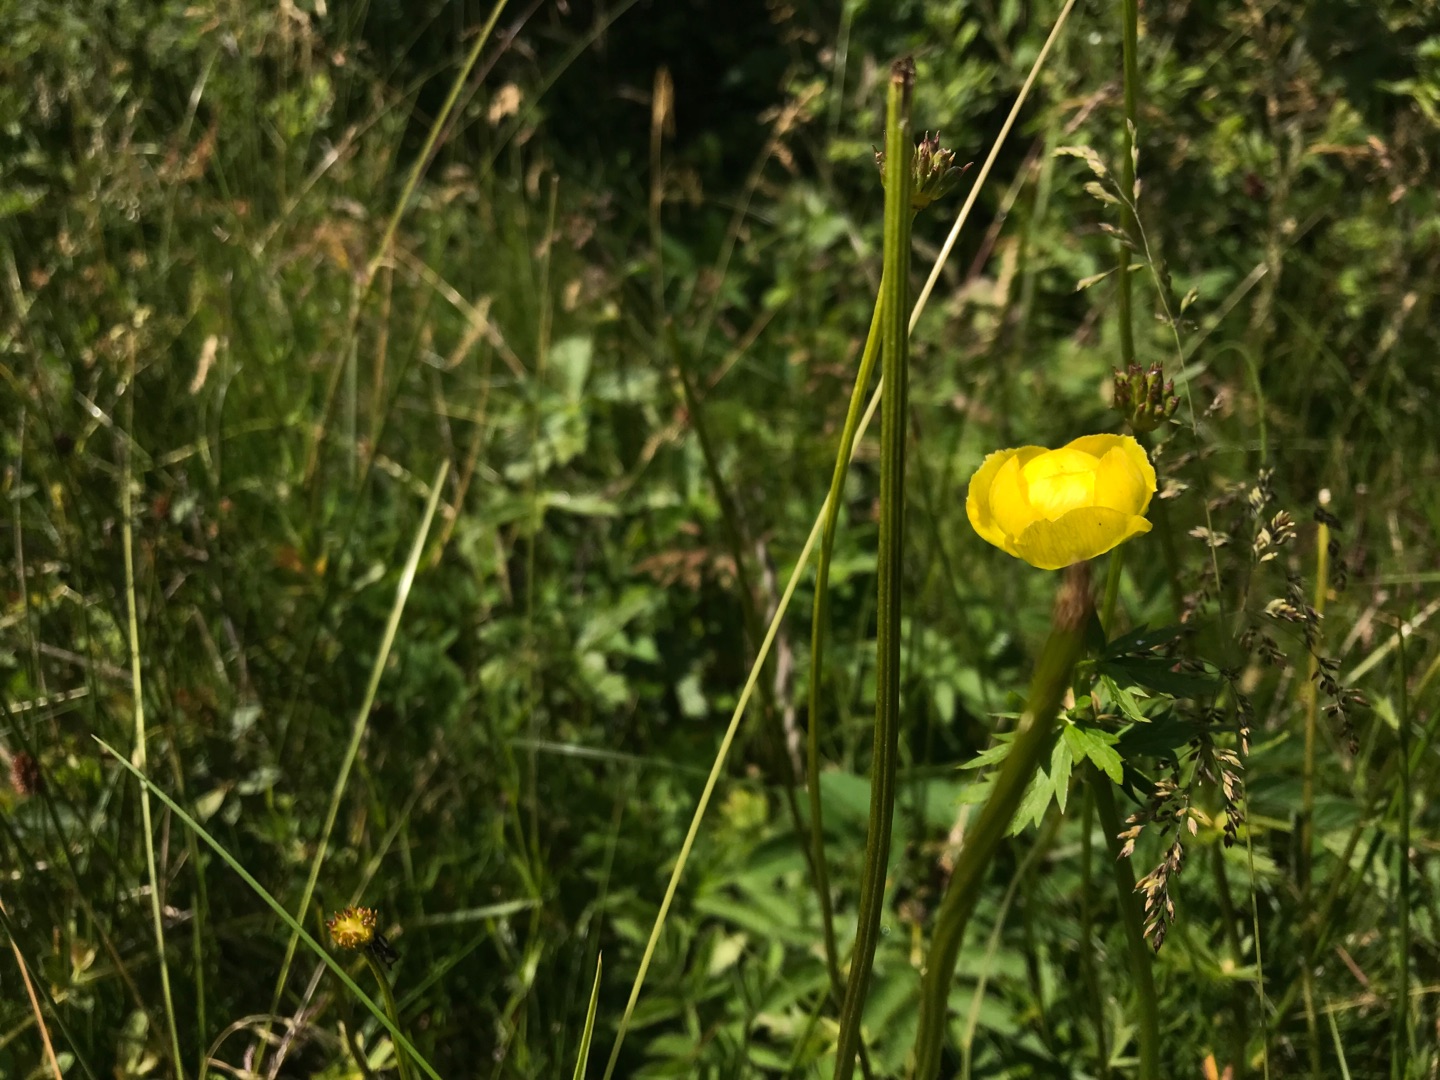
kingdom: Plantae
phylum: Tracheophyta
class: Magnoliopsida
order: Ranunculales
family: Ranunculaceae
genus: Trollius
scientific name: Trollius europaeus
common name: Engblomme
